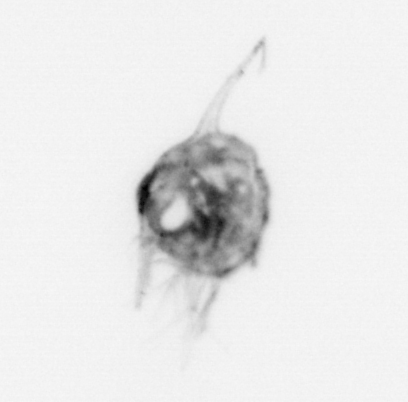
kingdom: Animalia
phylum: Arthropoda
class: Malacostraca
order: Decapoda
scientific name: Decapoda
